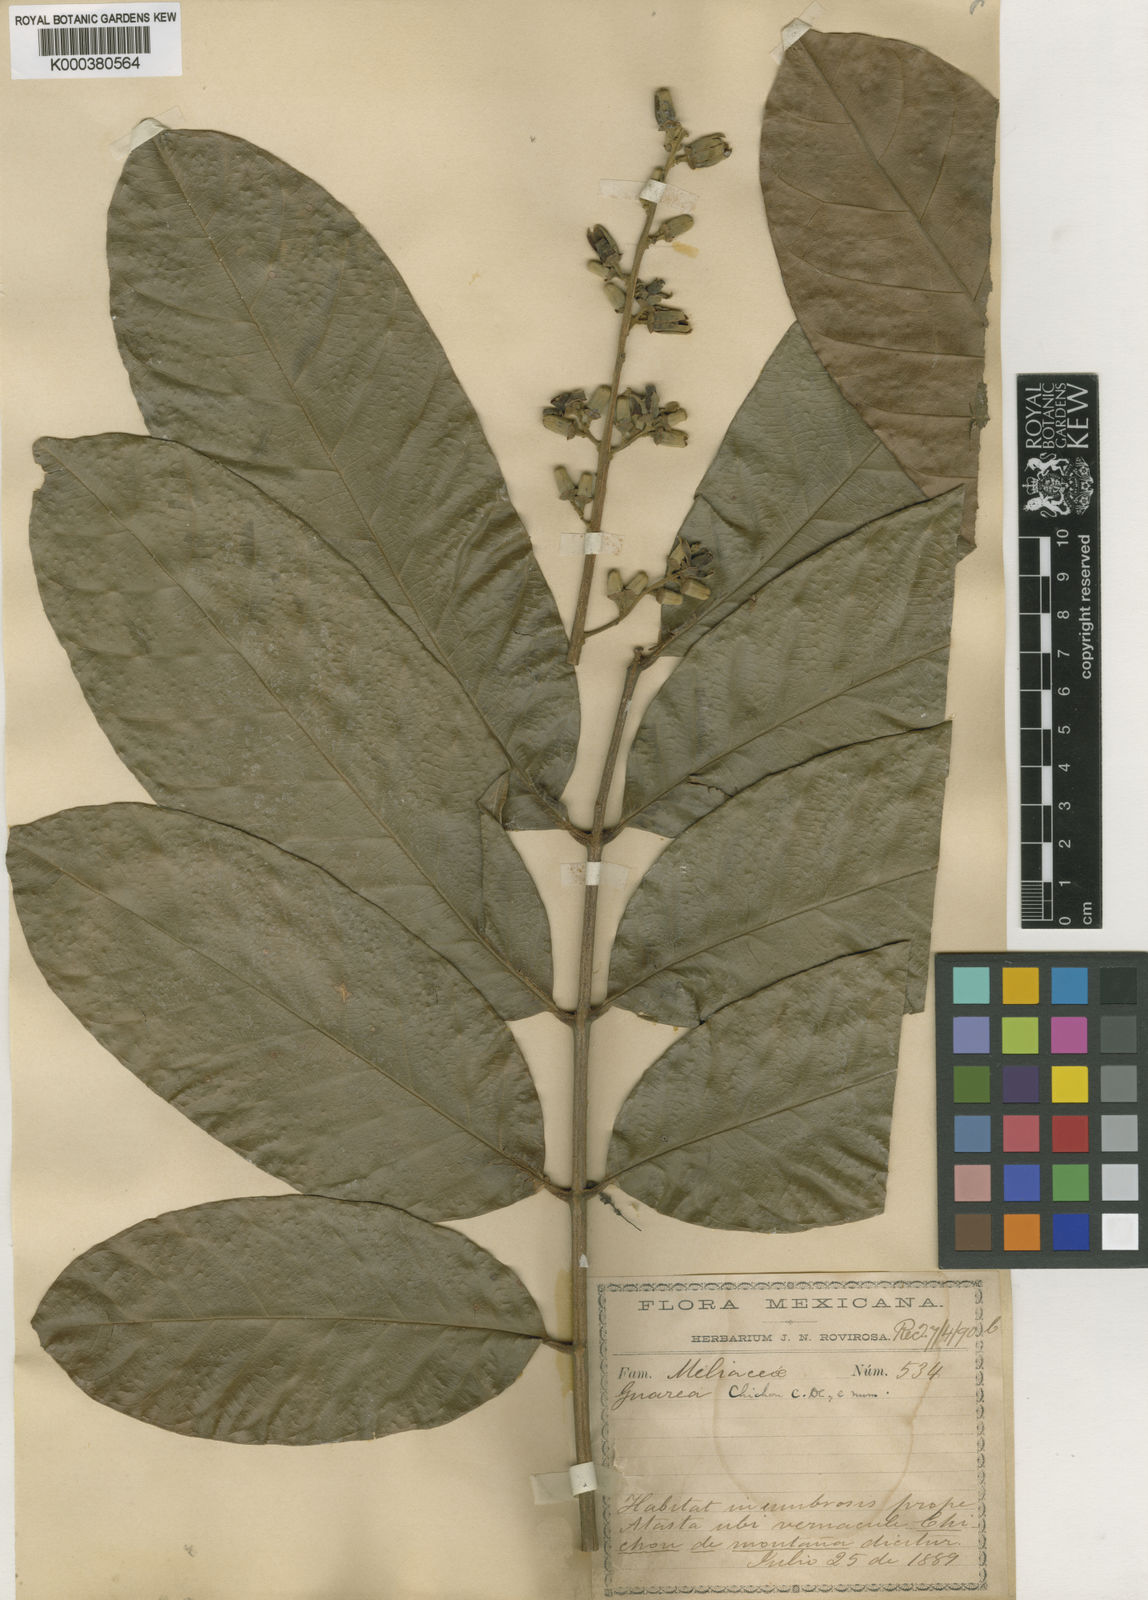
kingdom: Plantae
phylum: Tracheophyta
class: Magnoliopsida
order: Sapindales
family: Meliaceae
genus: Guarea
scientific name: Guarea guidonia
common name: American muskwood
